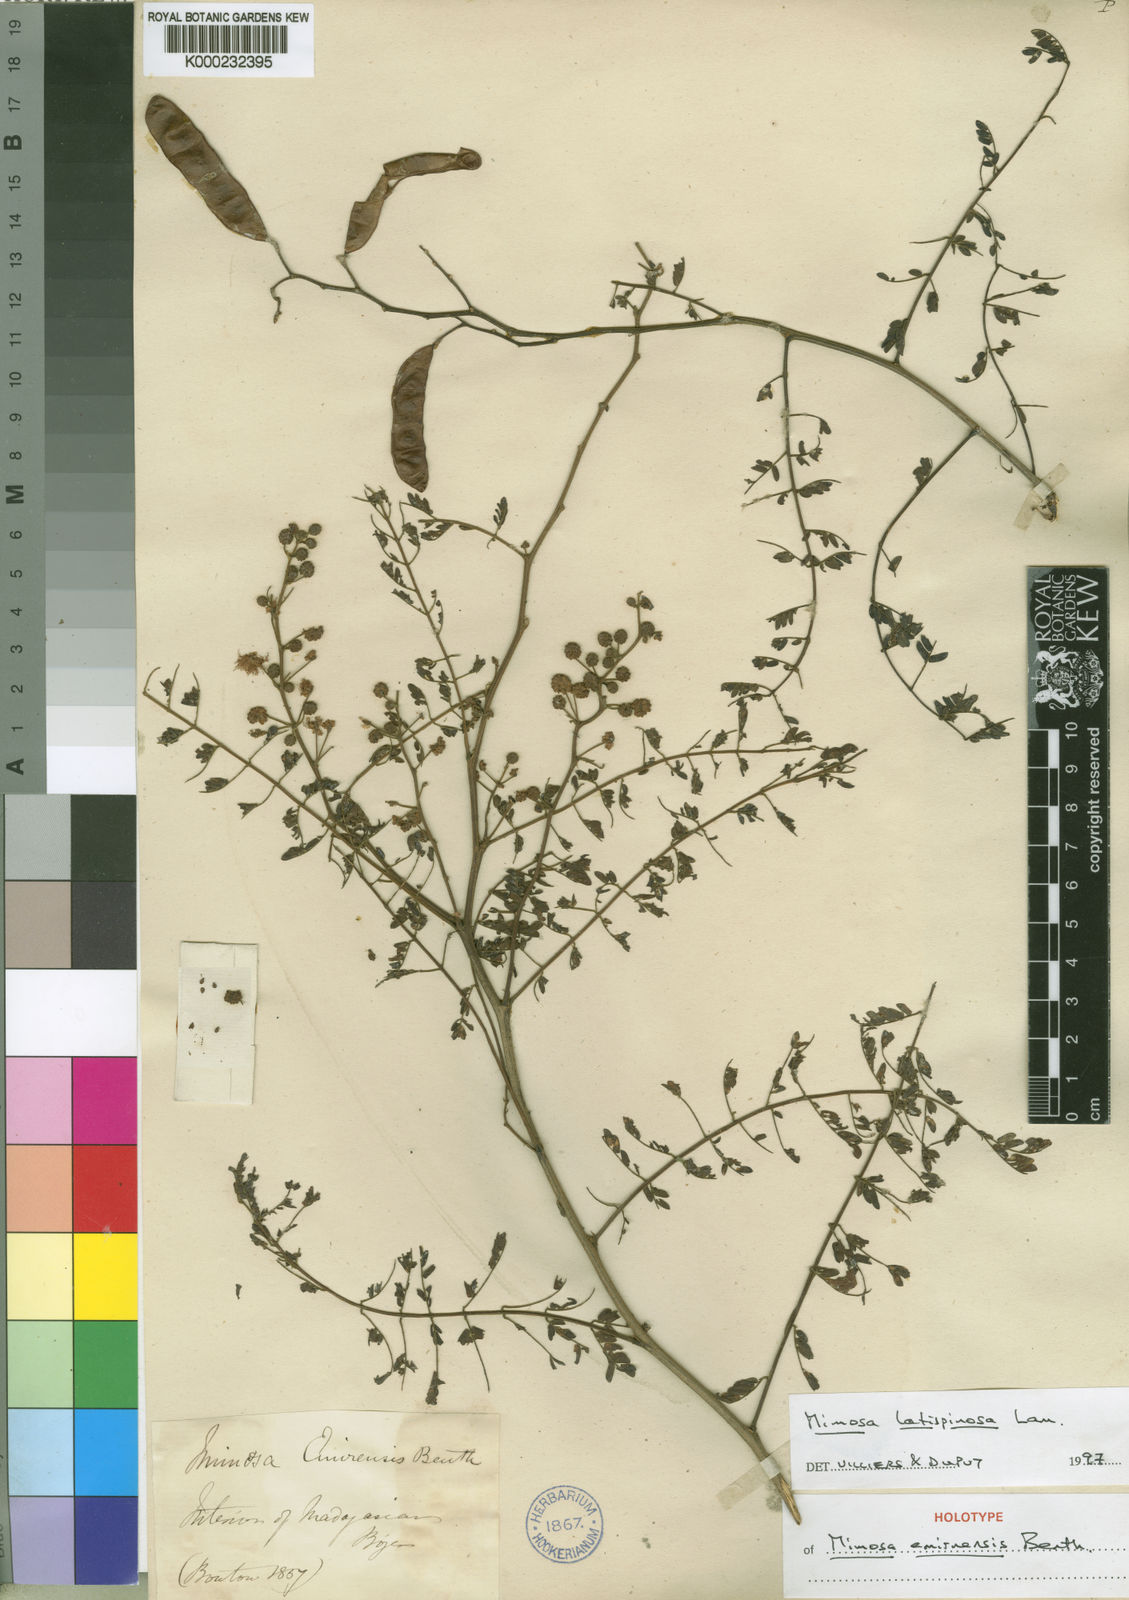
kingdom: Plantae
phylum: Tracheophyta
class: Magnoliopsida
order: Fabales
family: Fabaceae
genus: Mimosa
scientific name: Mimosa latispinosa
